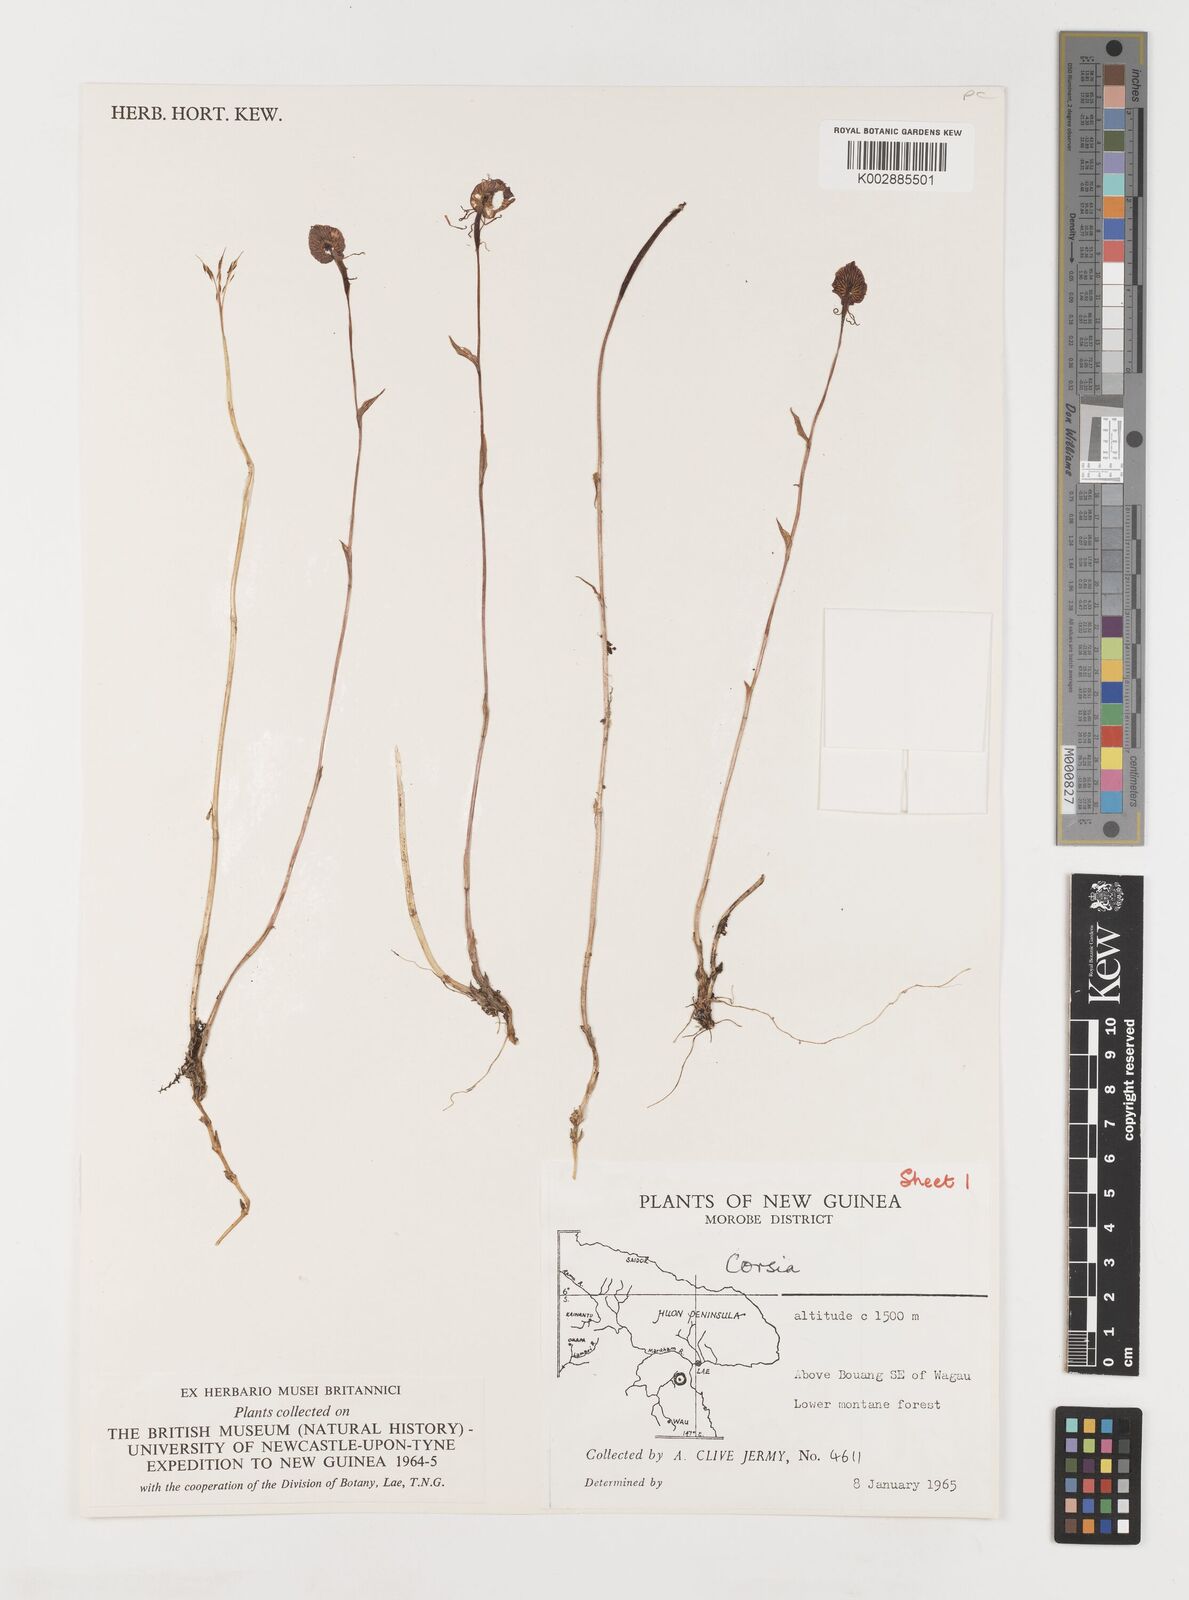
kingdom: Plantae
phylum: Tracheophyta
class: Liliopsida
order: Liliales
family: Corsiaceae
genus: Corsia
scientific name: Corsia
